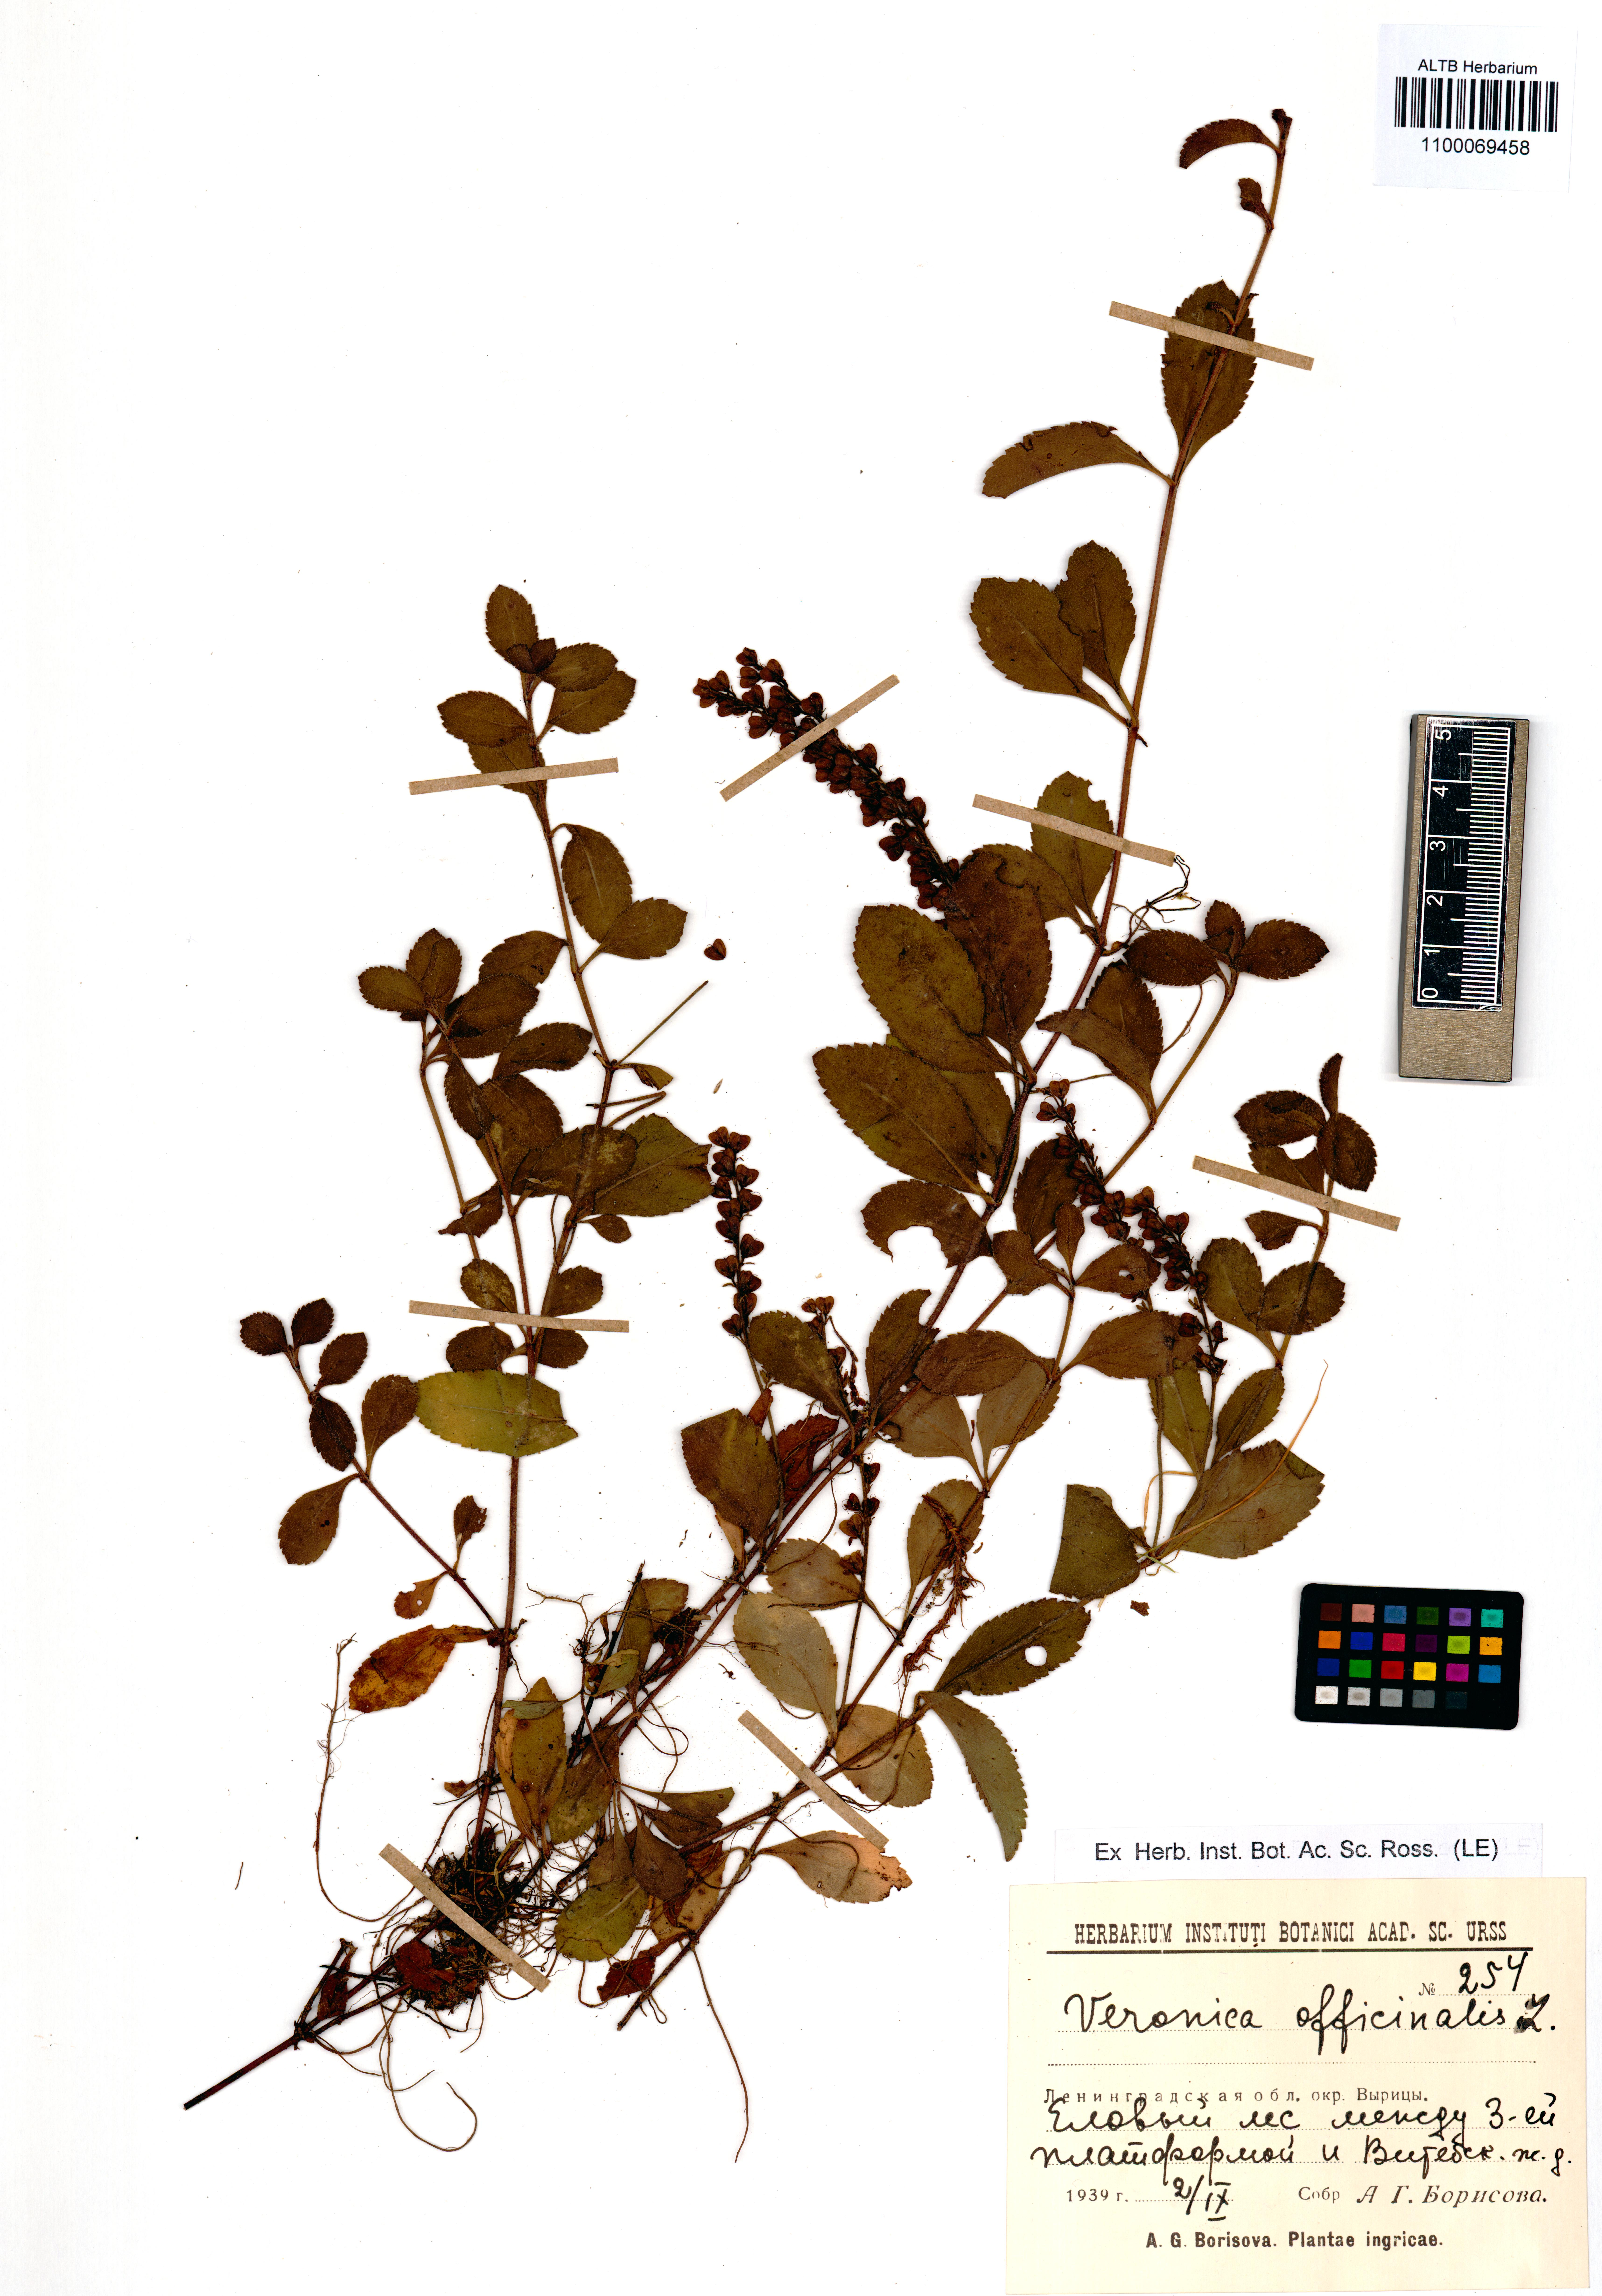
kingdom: Plantae
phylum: Tracheophyta
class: Magnoliopsida
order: Lamiales
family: Plantaginaceae
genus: Veronica
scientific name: Veronica officinalis
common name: Common speedwell
